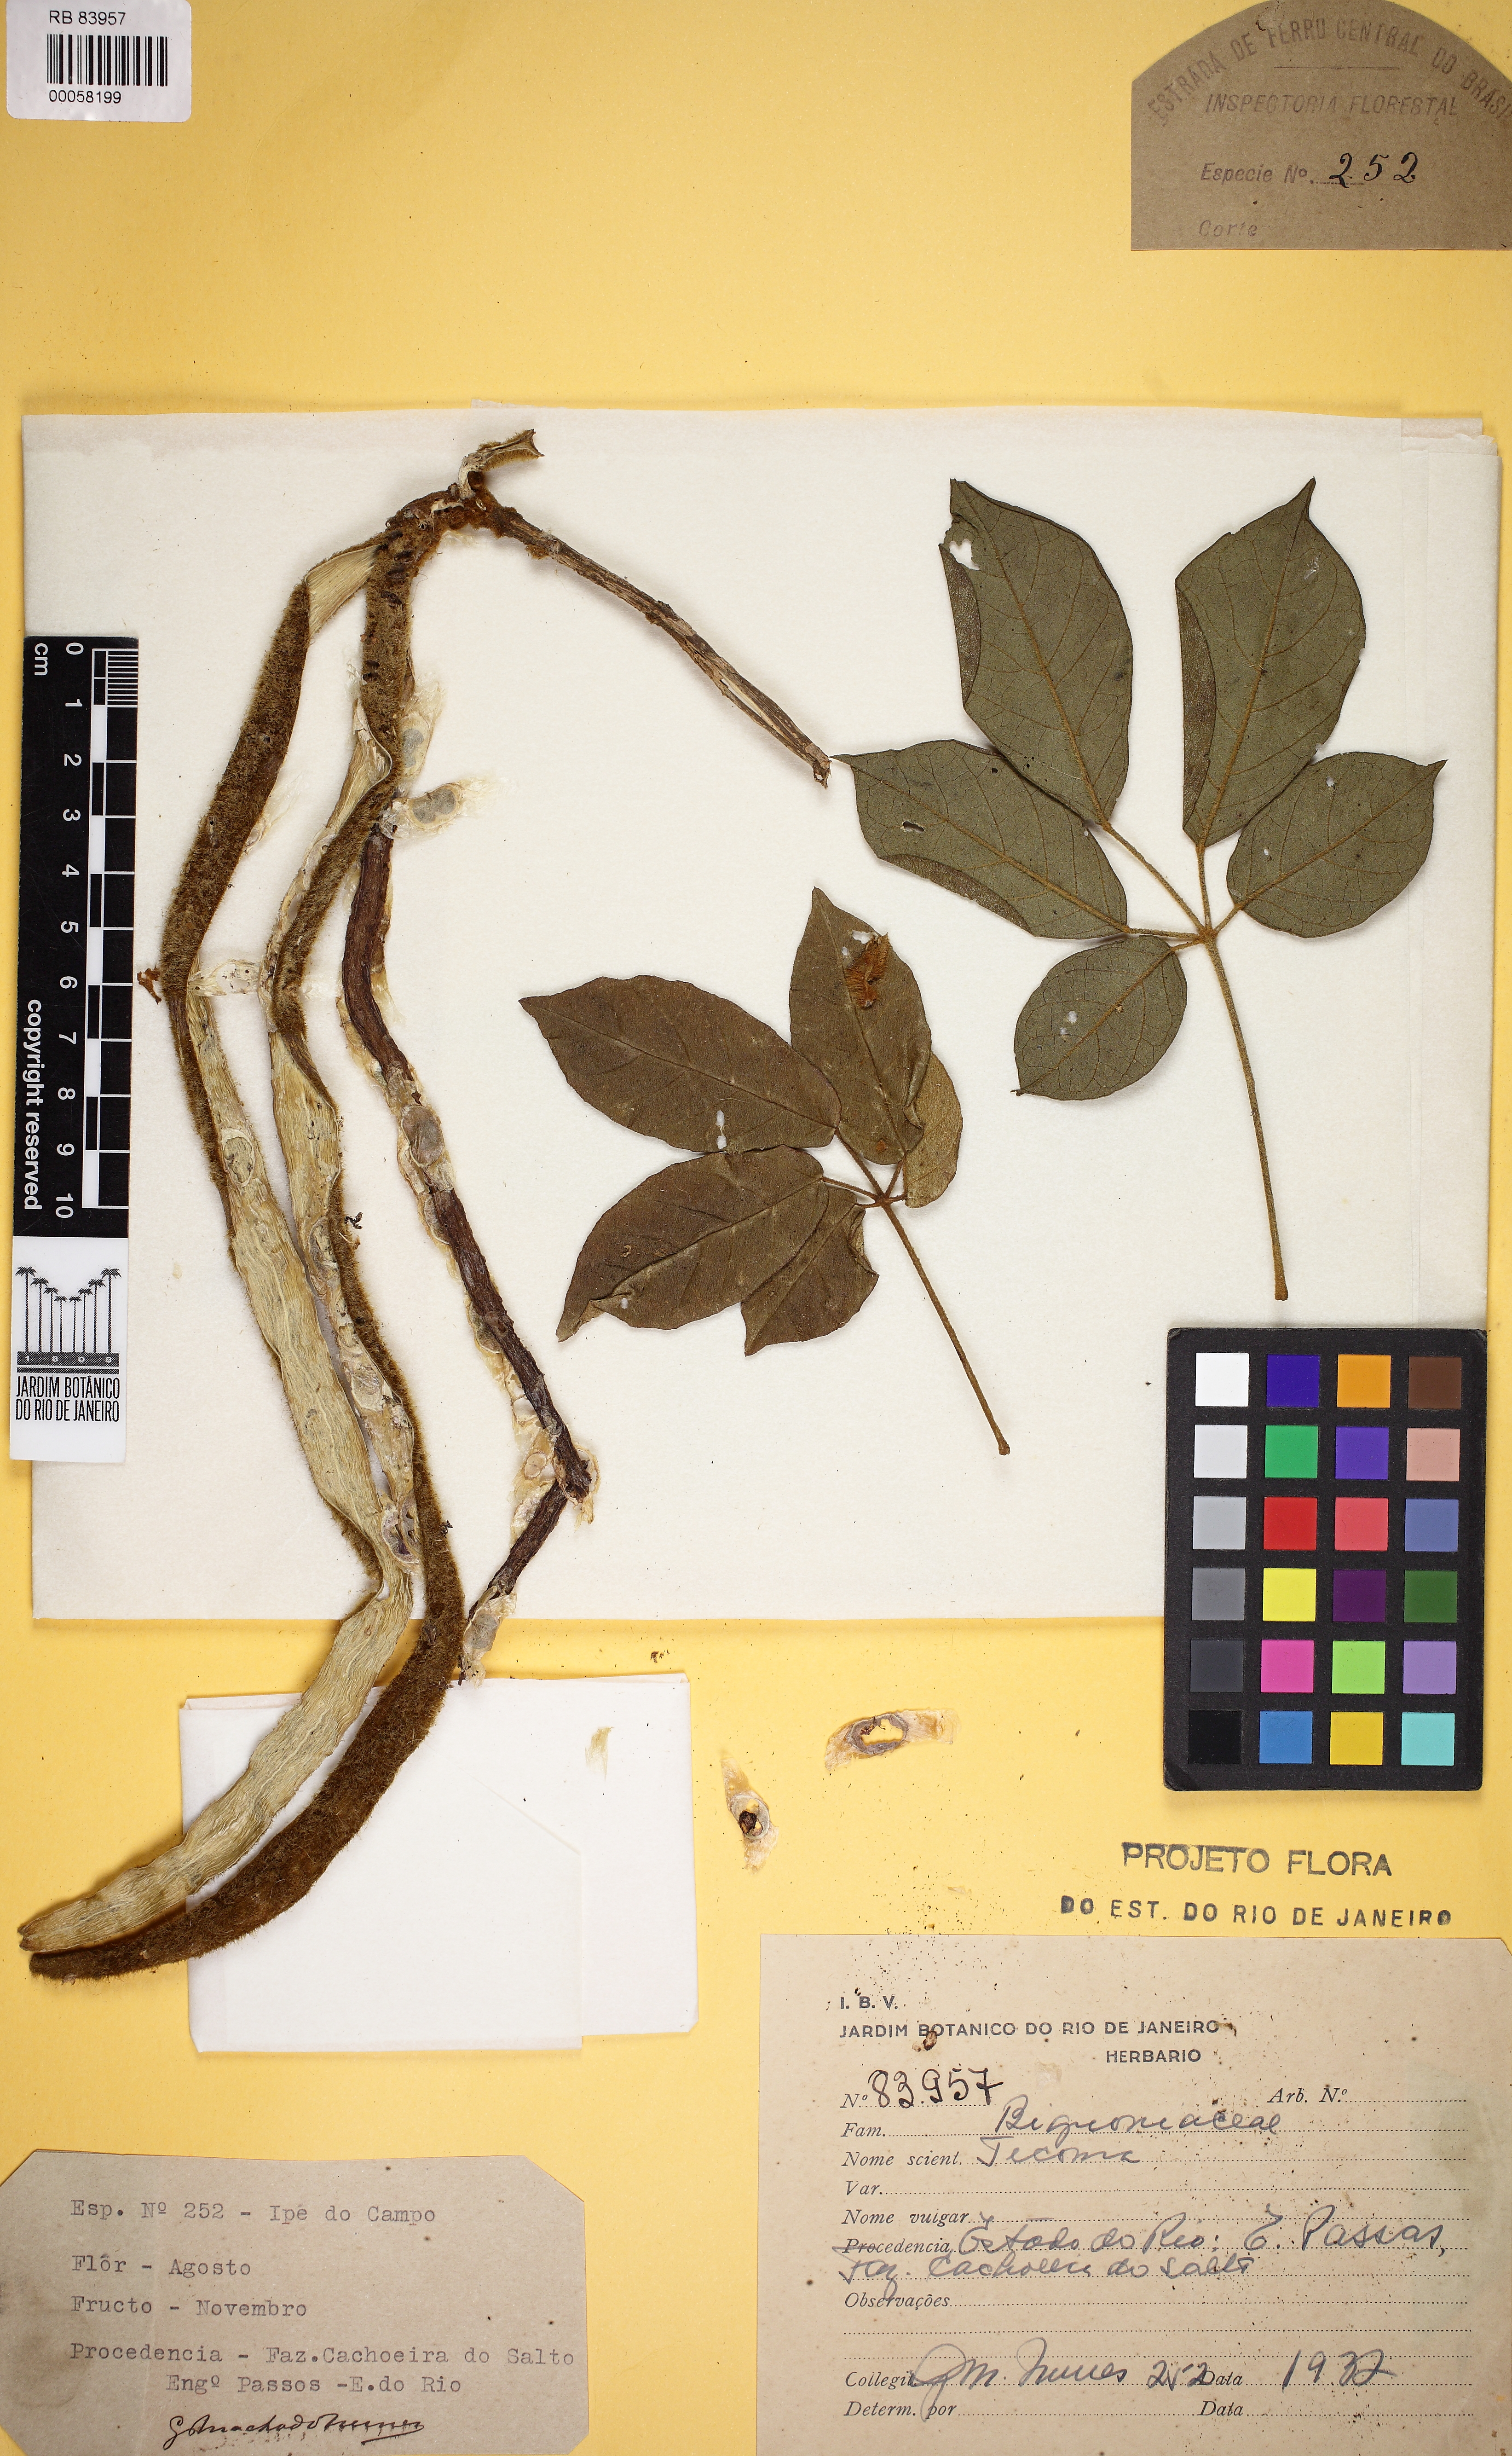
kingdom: Plantae
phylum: Tracheophyta
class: Magnoliopsida
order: Lamiales
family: Bignoniaceae
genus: Tecoma
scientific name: Tecoma
